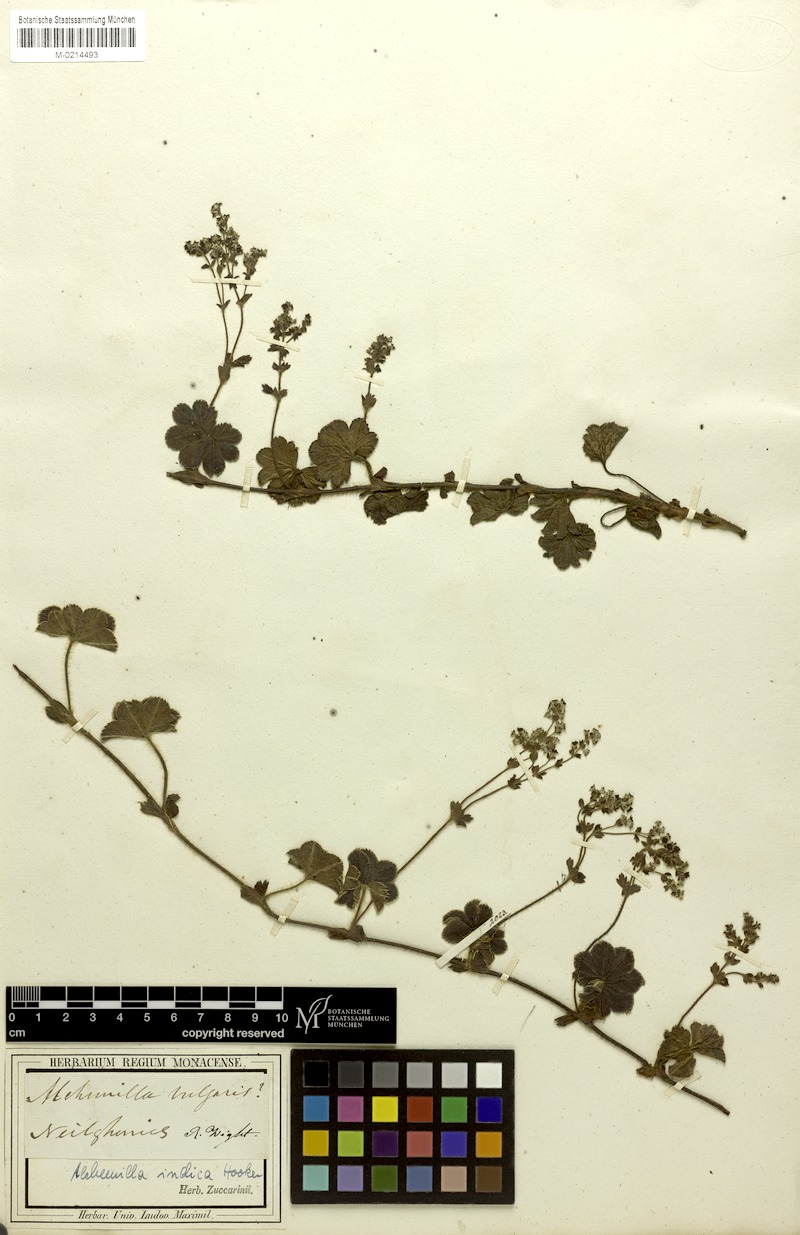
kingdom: Plantae
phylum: Tracheophyta
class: Magnoliopsida
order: Rosales
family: Rosaceae
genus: Alchemilla
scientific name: Alchemilla indica
